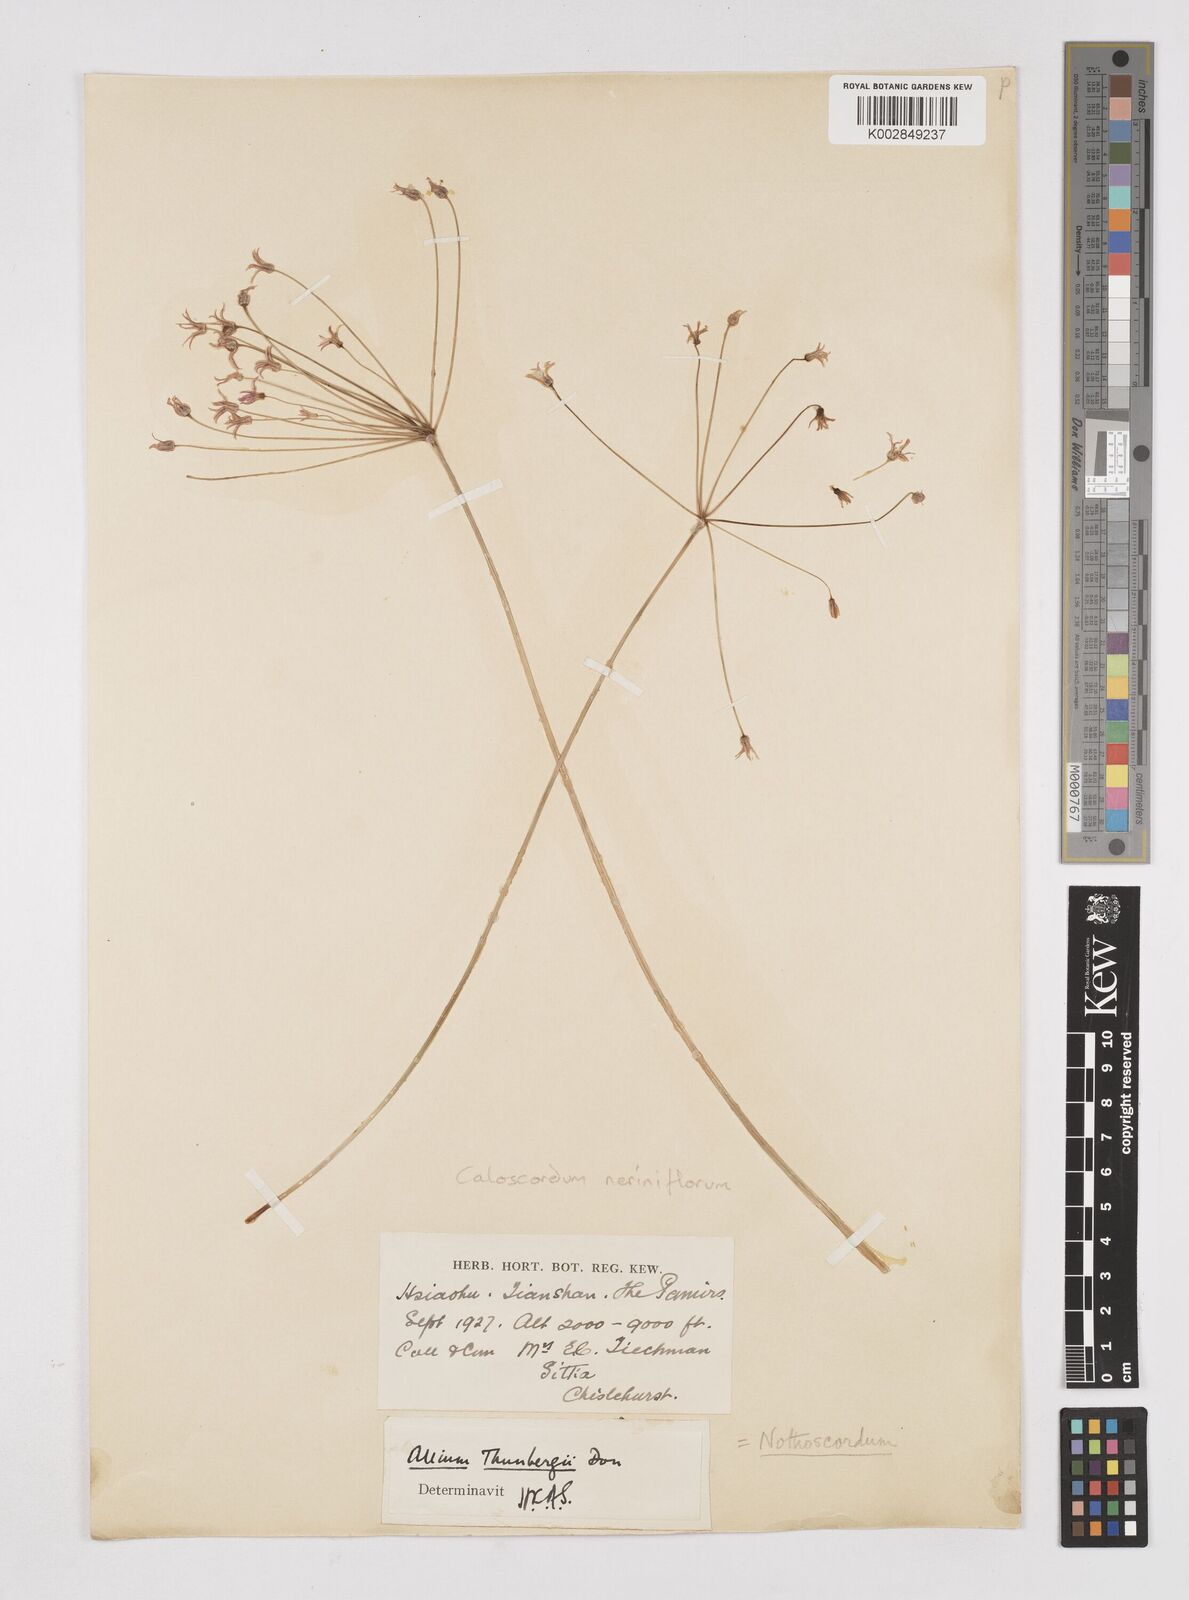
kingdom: Plantae
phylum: Tracheophyta
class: Liliopsida
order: Liliales
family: Liliaceae
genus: Agapanthus
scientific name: Agapanthus
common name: Agapanthus
